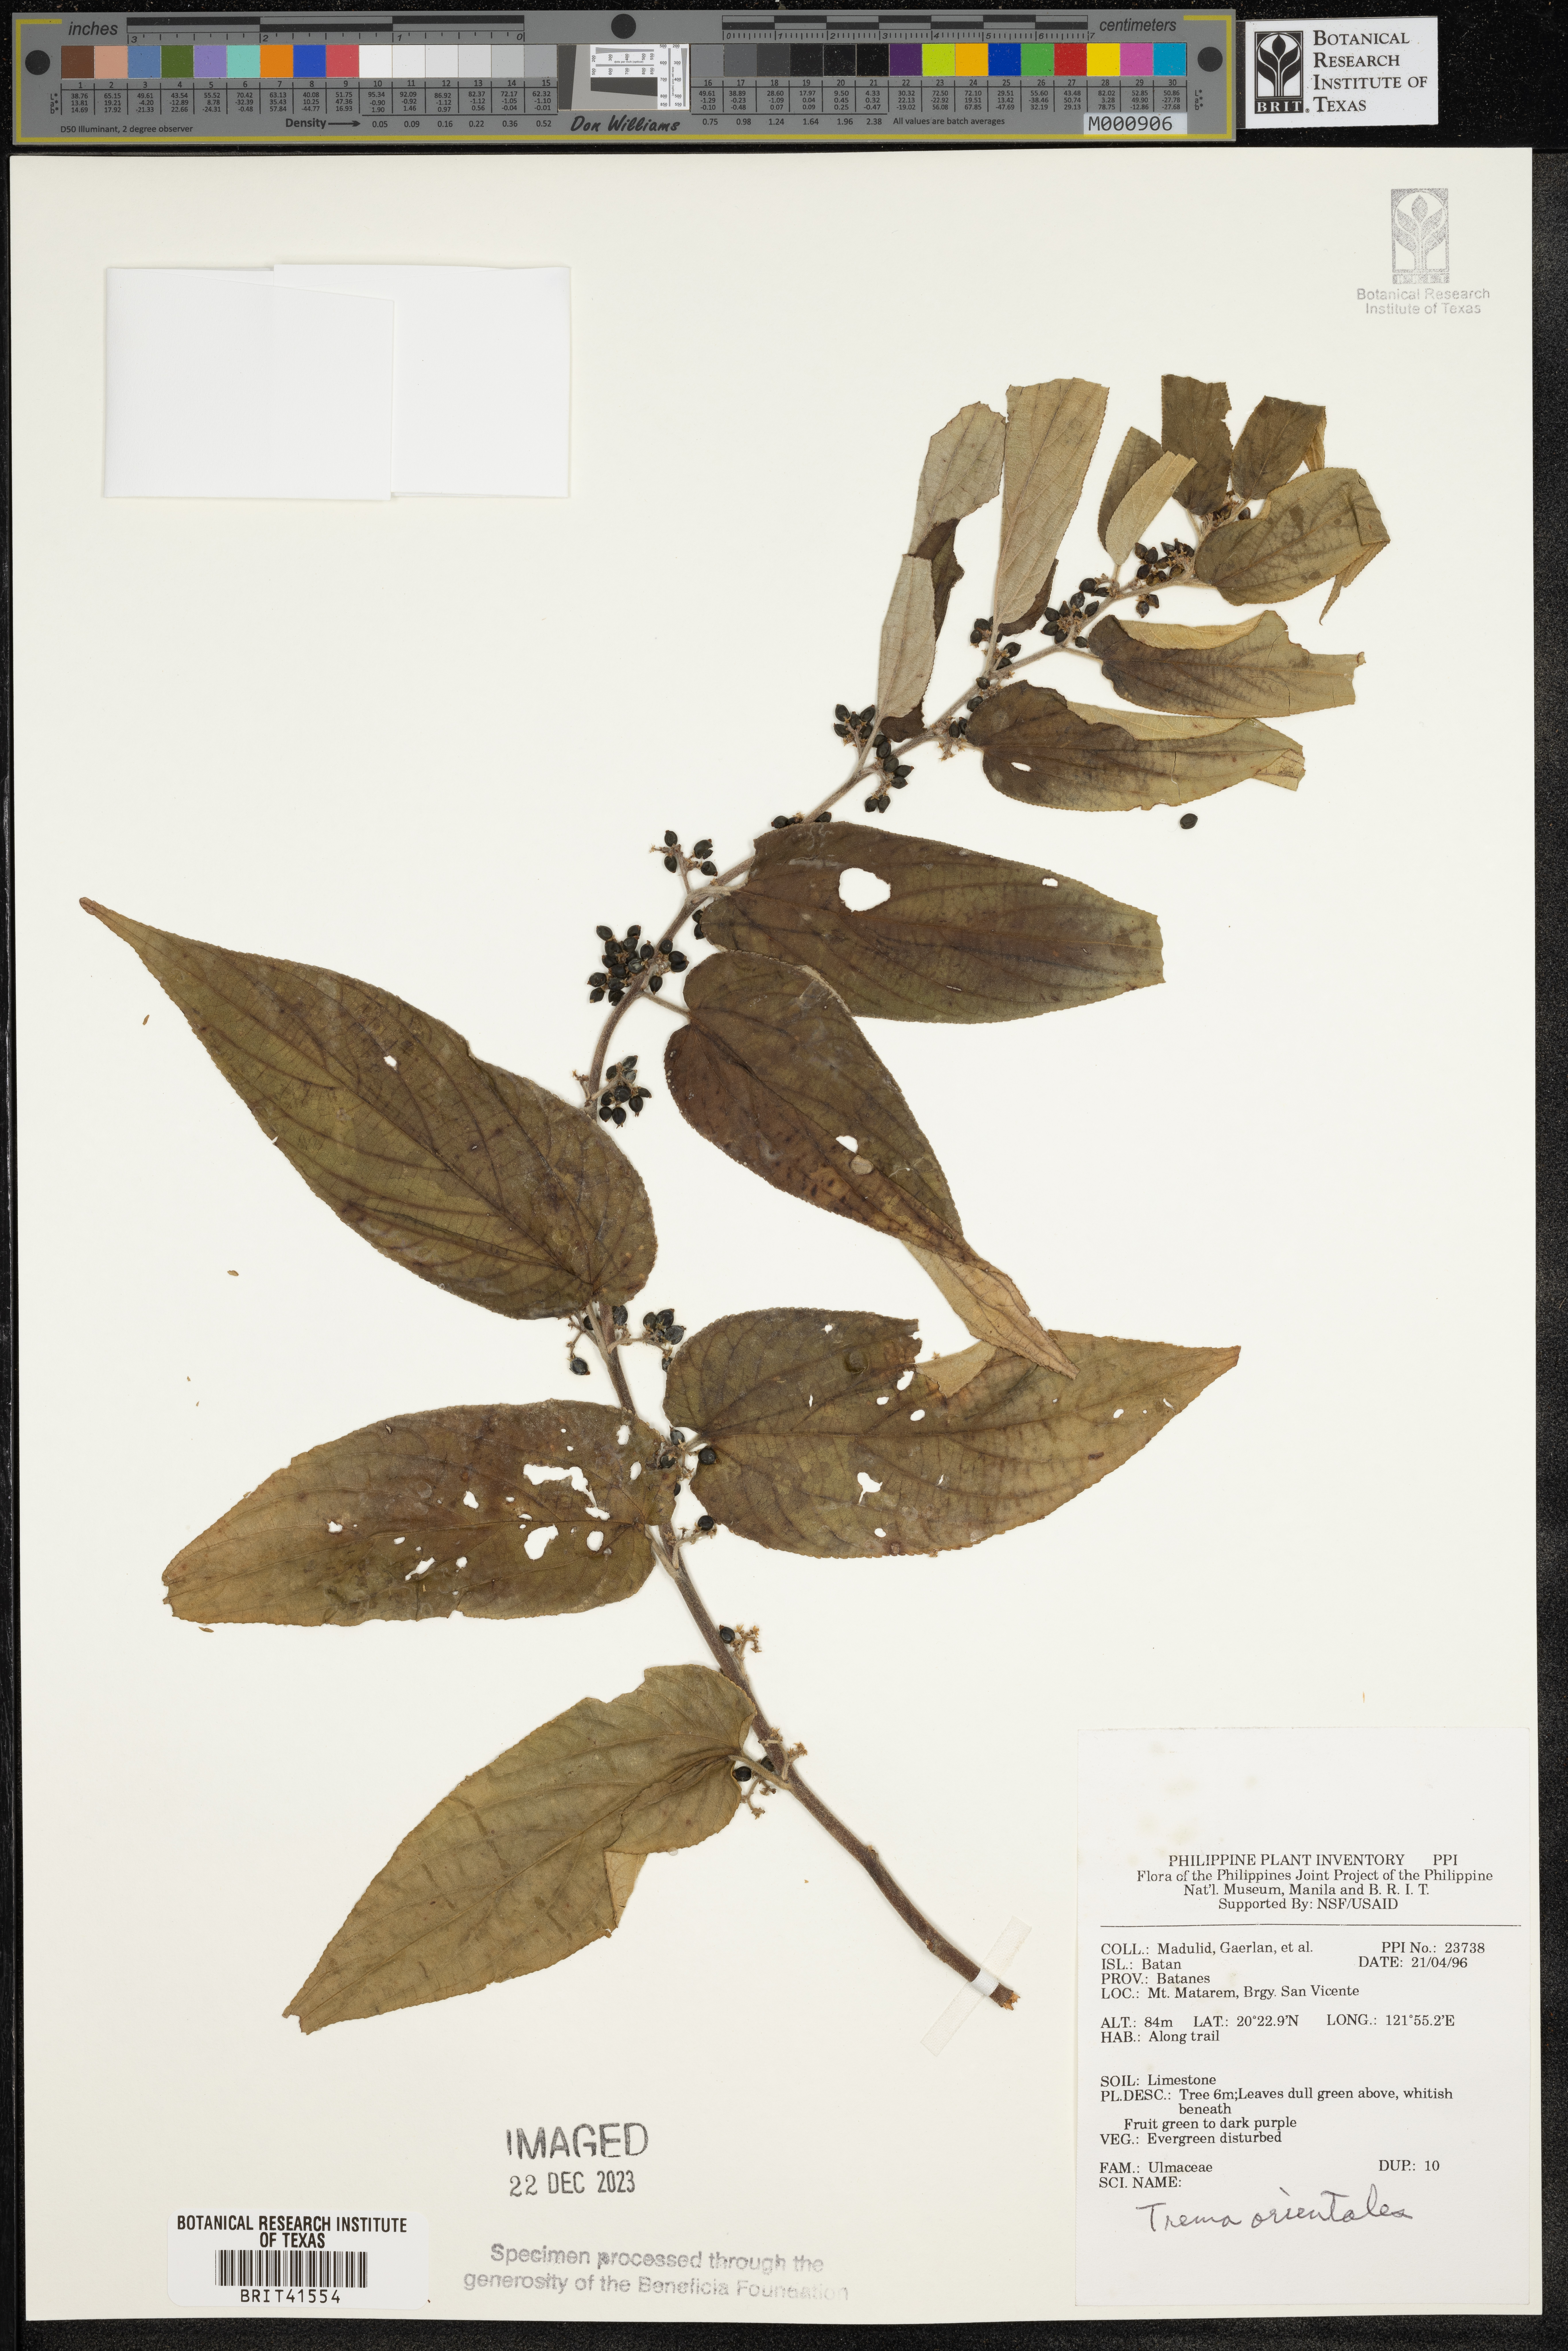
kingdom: Plantae
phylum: Tracheophyta
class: Magnoliopsida
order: Rosales
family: Cannabaceae
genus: Trema
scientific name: Trema orientale
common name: Indian charcoal tree
